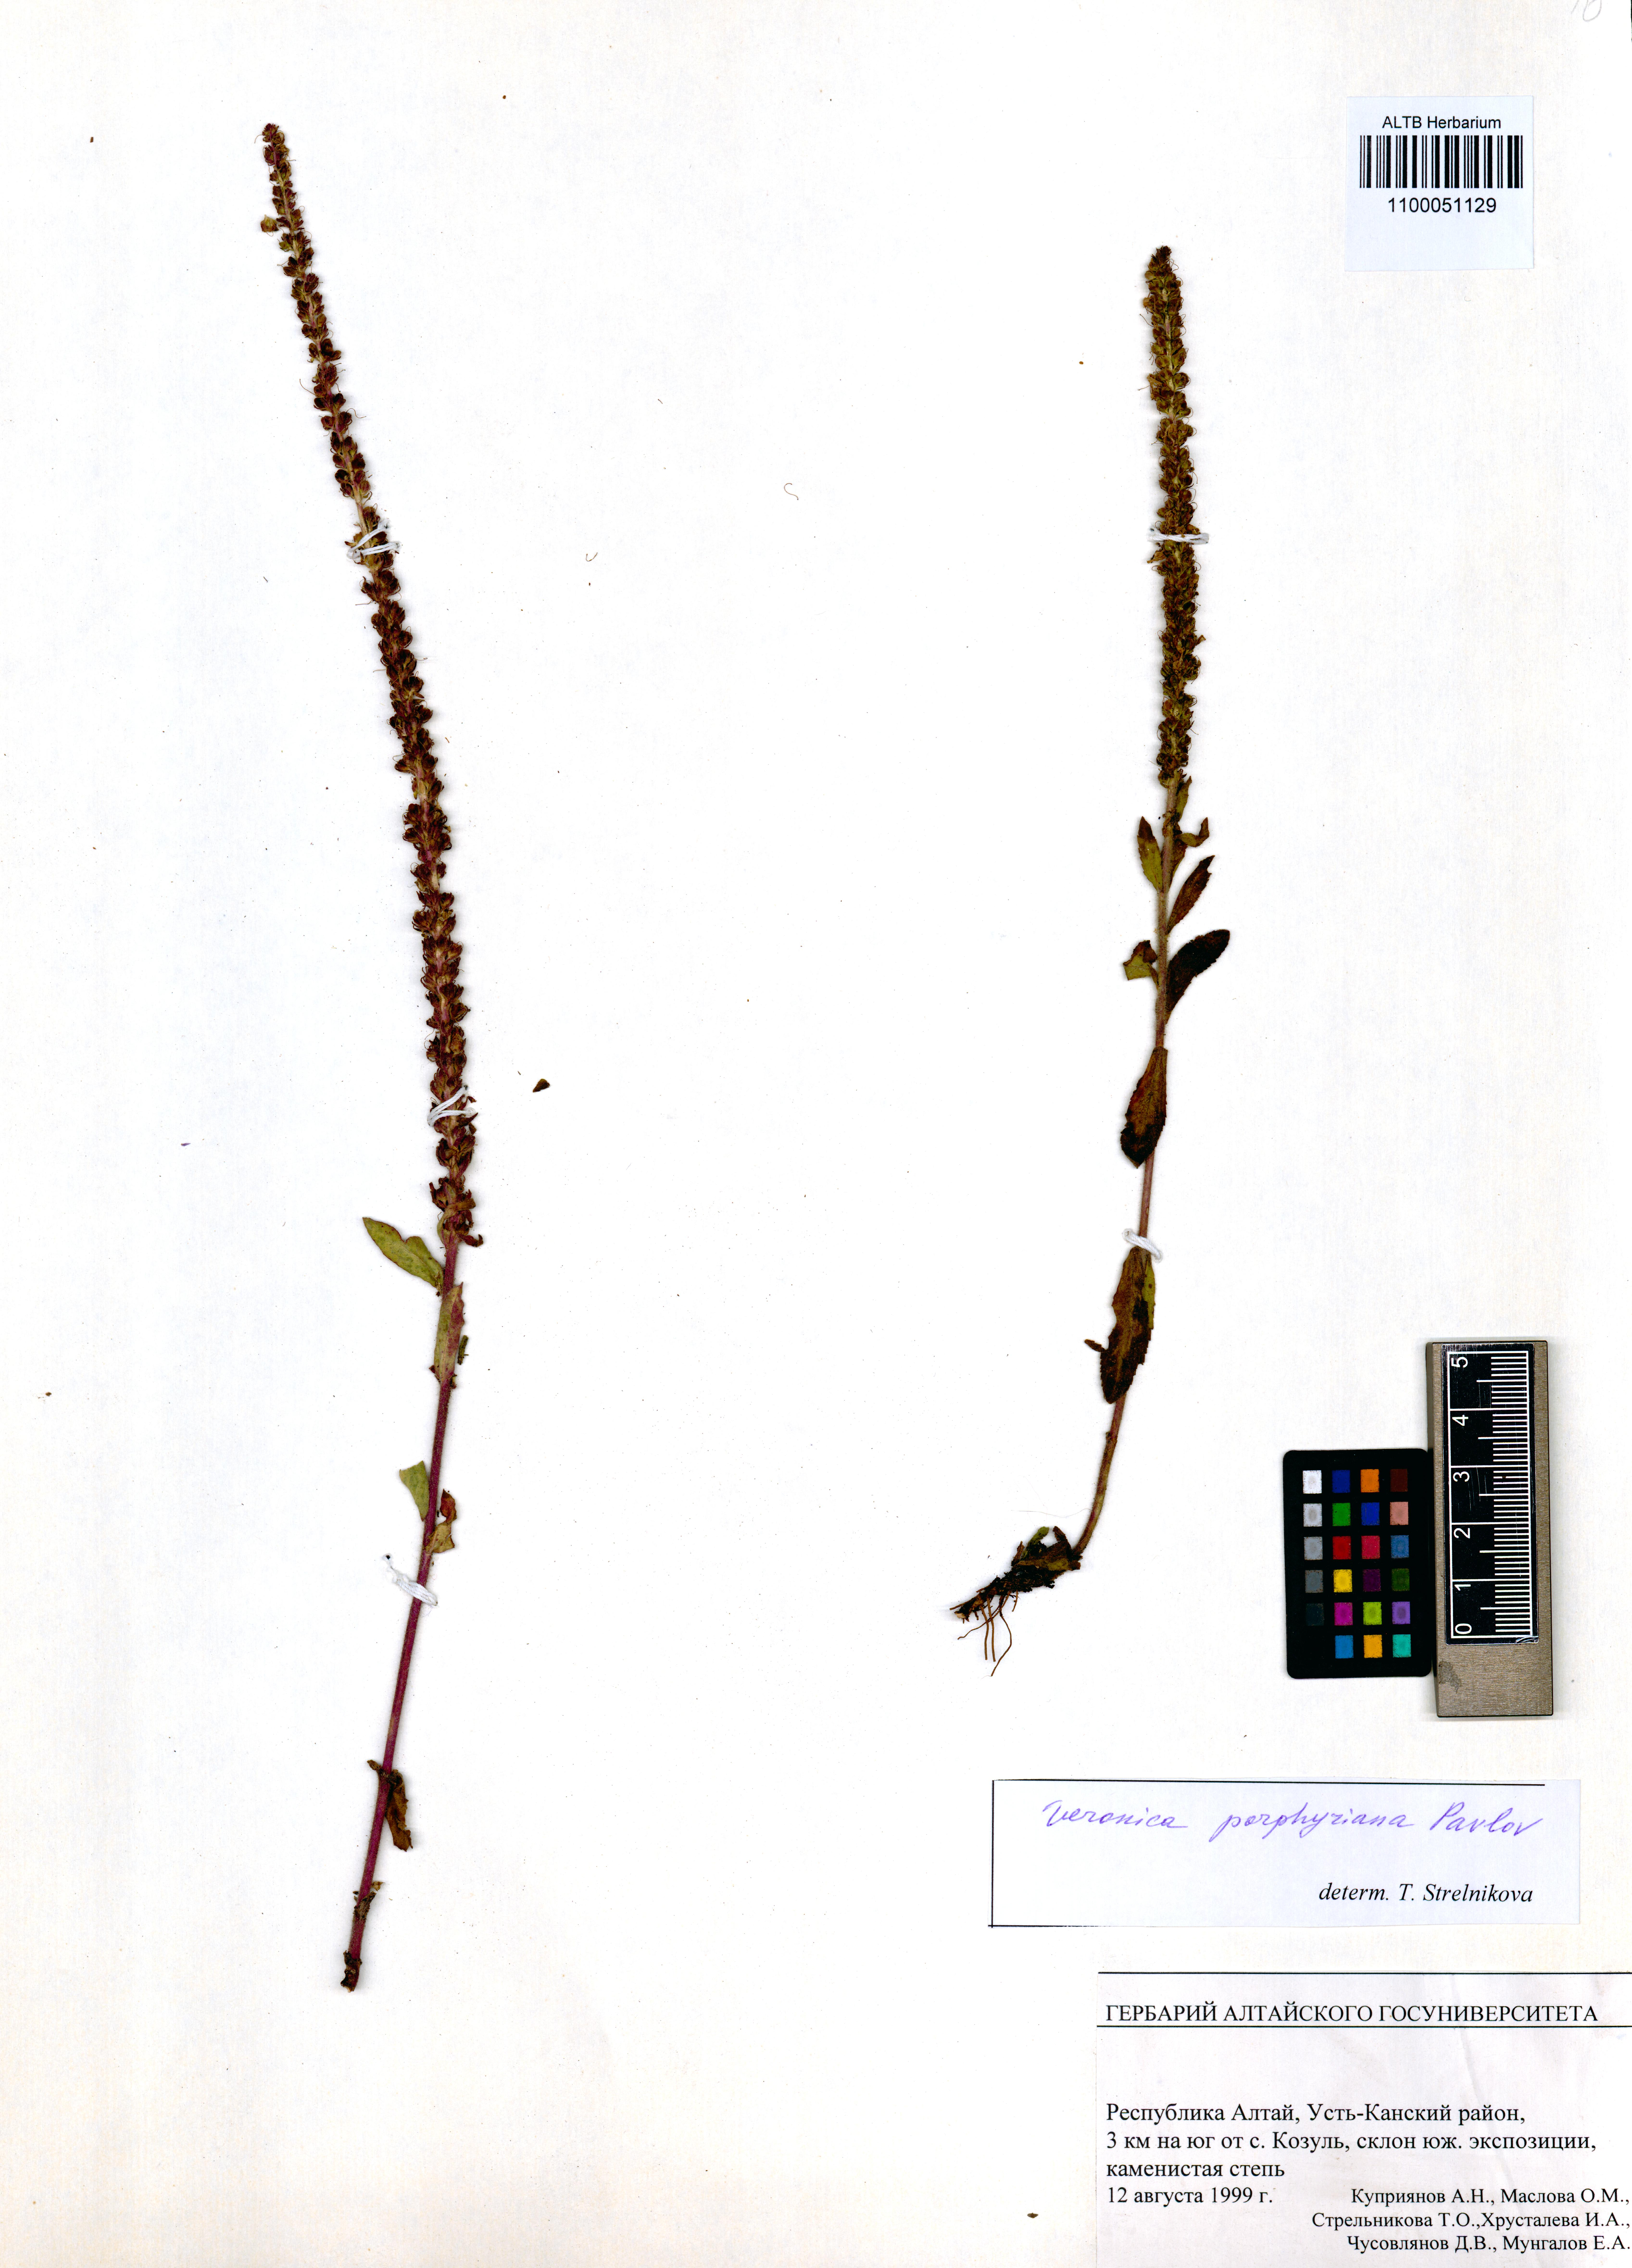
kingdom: Plantae
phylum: Tracheophyta
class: Magnoliopsida
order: Lamiales
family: Plantaginaceae
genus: Veronica
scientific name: Veronica porphyriana
